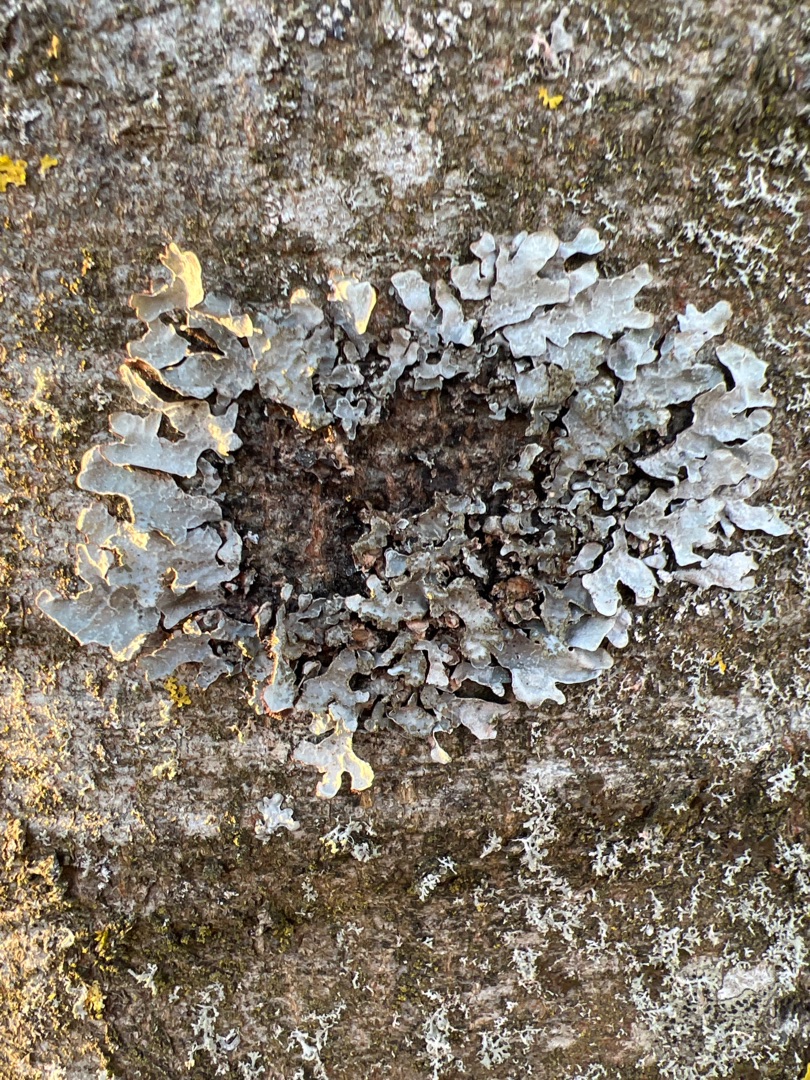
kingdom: Fungi
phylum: Ascomycota
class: Lecanoromycetes
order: Lecanorales
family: Parmeliaceae
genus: Parmelia
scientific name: Parmelia sulcata
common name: Rynket skållav
